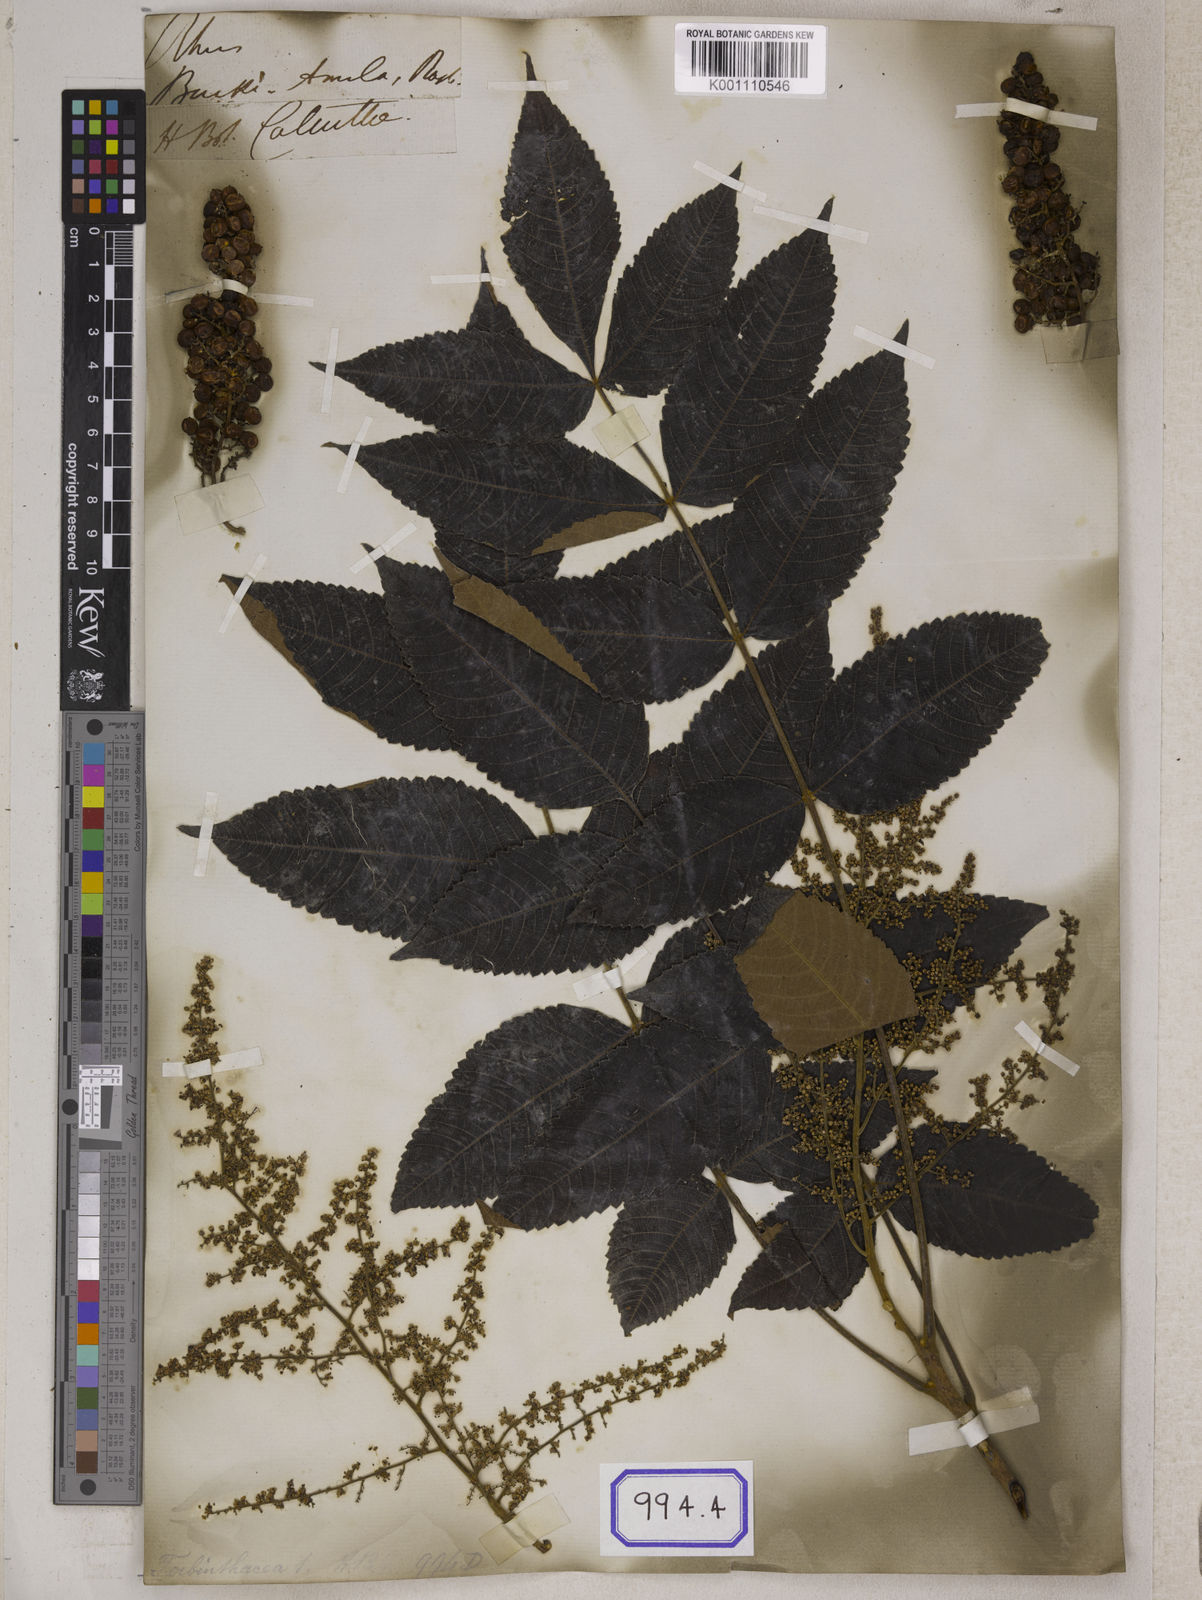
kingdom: Plantae
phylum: Tracheophyta
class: Magnoliopsida
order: Sapindales
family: Simaroubaceae
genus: Brucea
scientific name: Brucea javanica
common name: Macassar kernels
